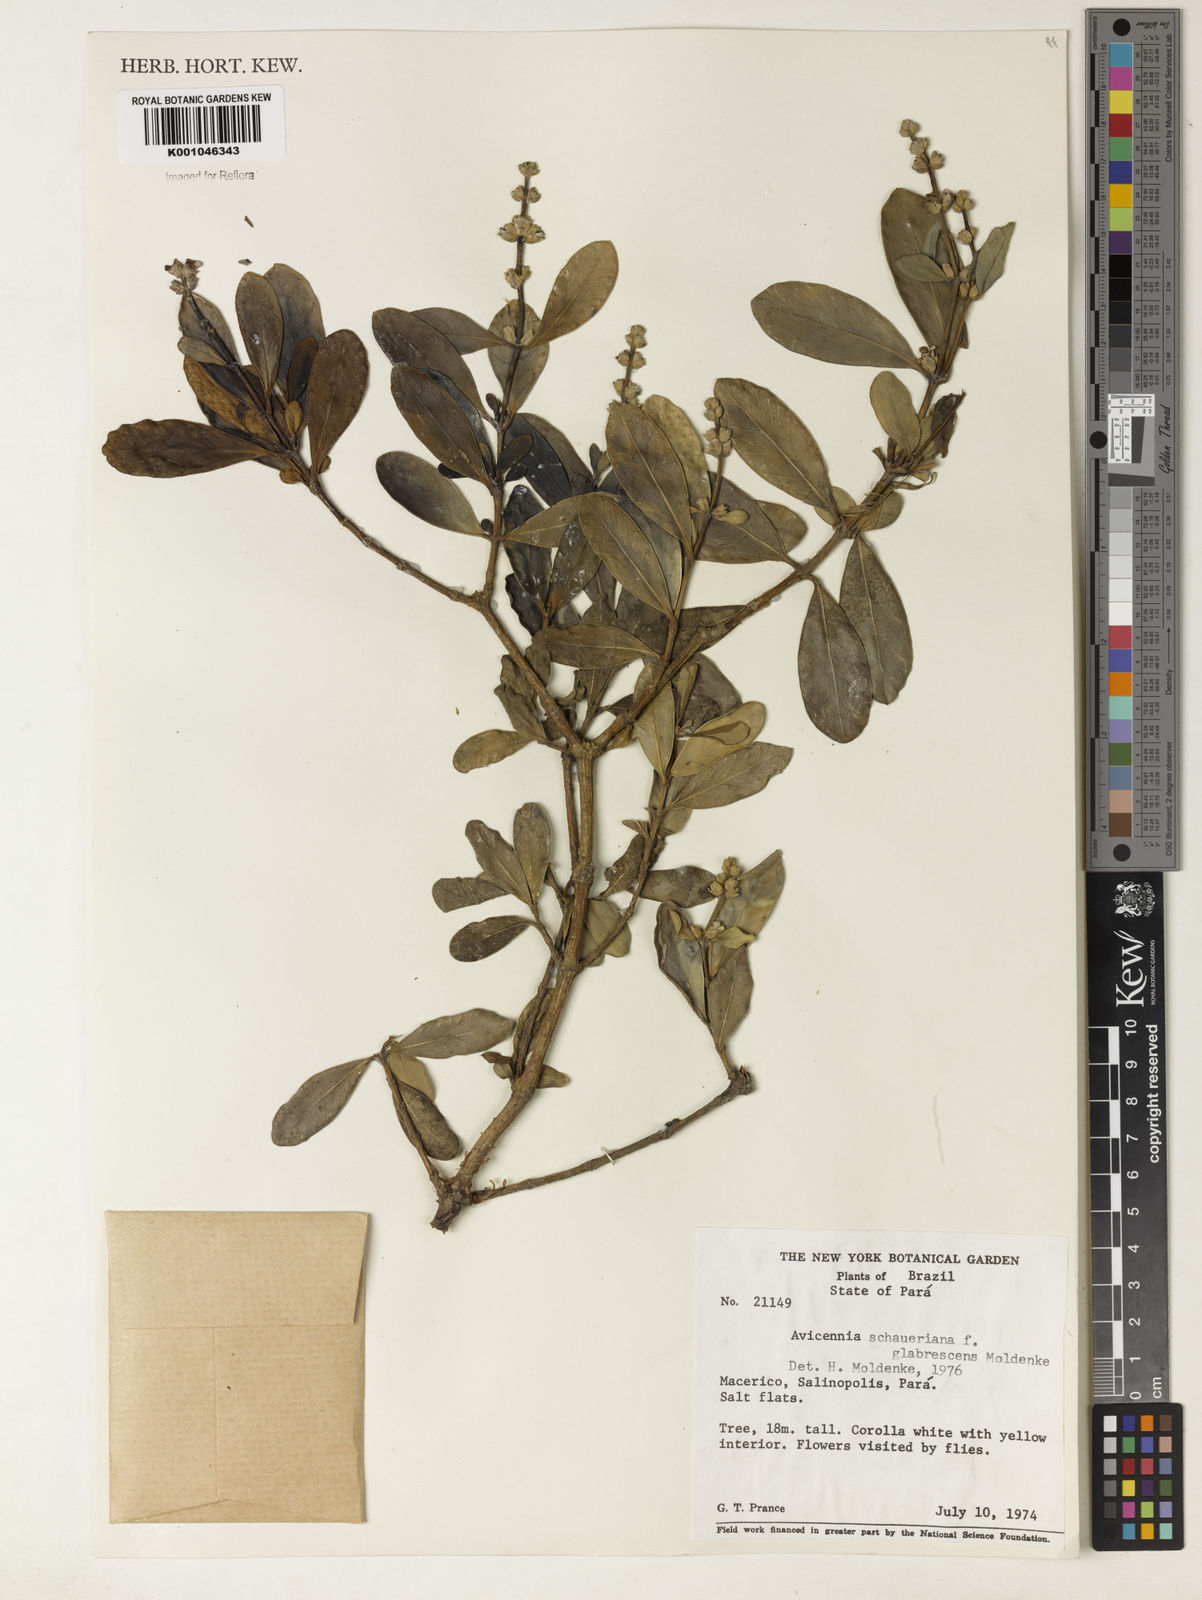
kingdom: Plantae
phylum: Tracheophyta
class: Magnoliopsida
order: Lamiales
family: Acanthaceae
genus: Avicennia
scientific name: Avicennia schaueriana
